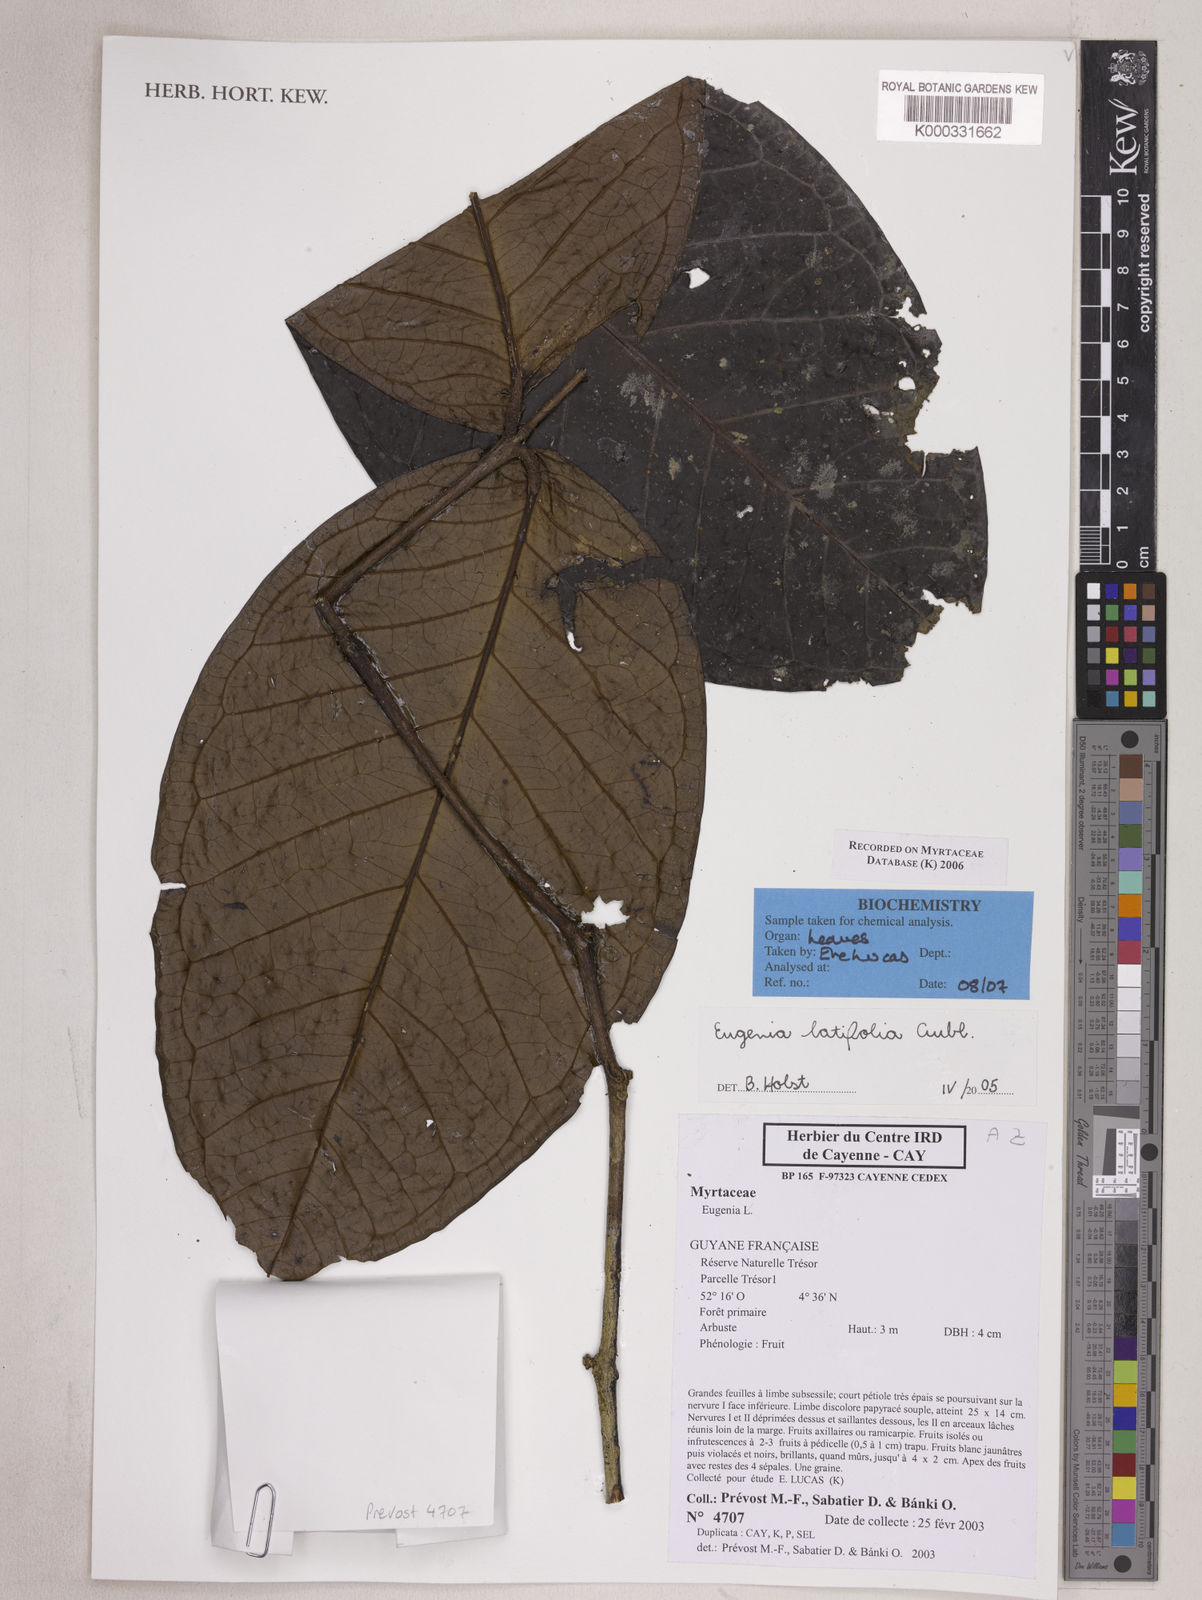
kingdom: Plantae
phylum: Tracheophyta
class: Magnoliopsida
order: Myrtales
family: Myrtaceae
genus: Eugenia
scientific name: Eugenia latifolia
